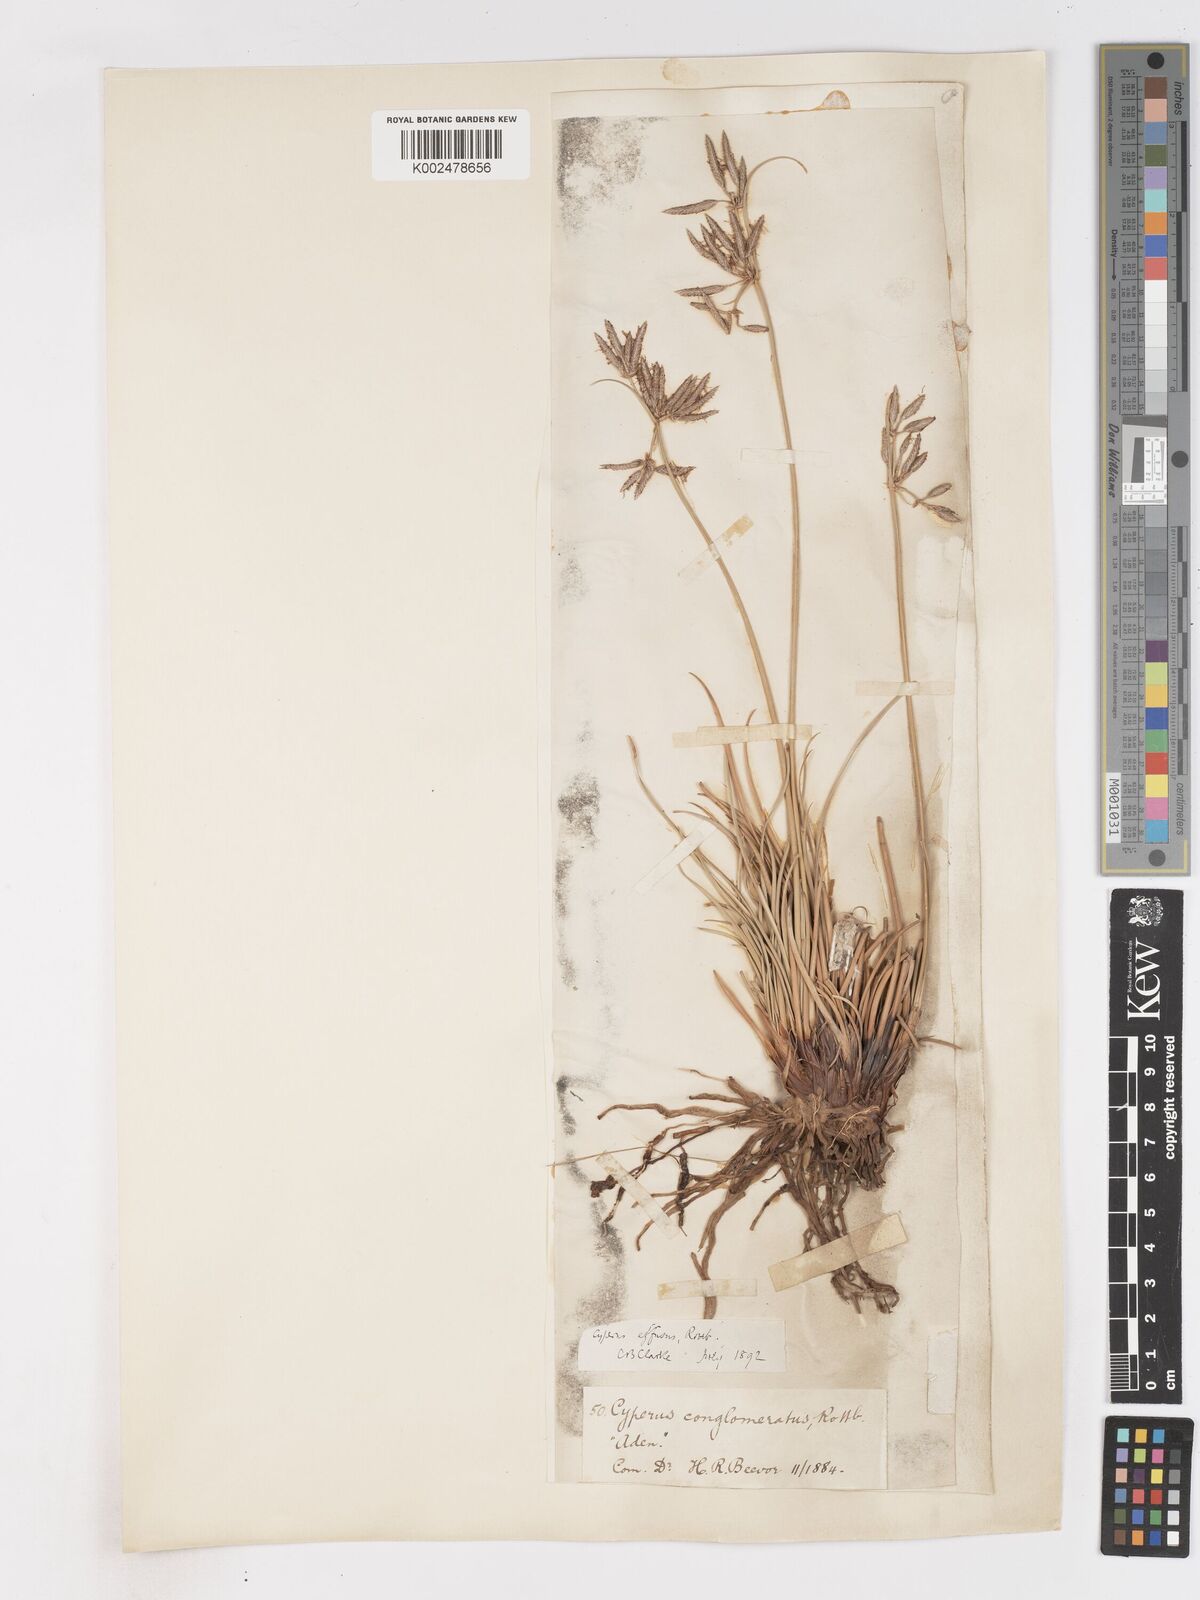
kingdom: Plantae
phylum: Tracheophyta
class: Liliopsida
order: Poales
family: Cyperaceae
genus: Cyperus
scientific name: Cyperus conglomeratus
